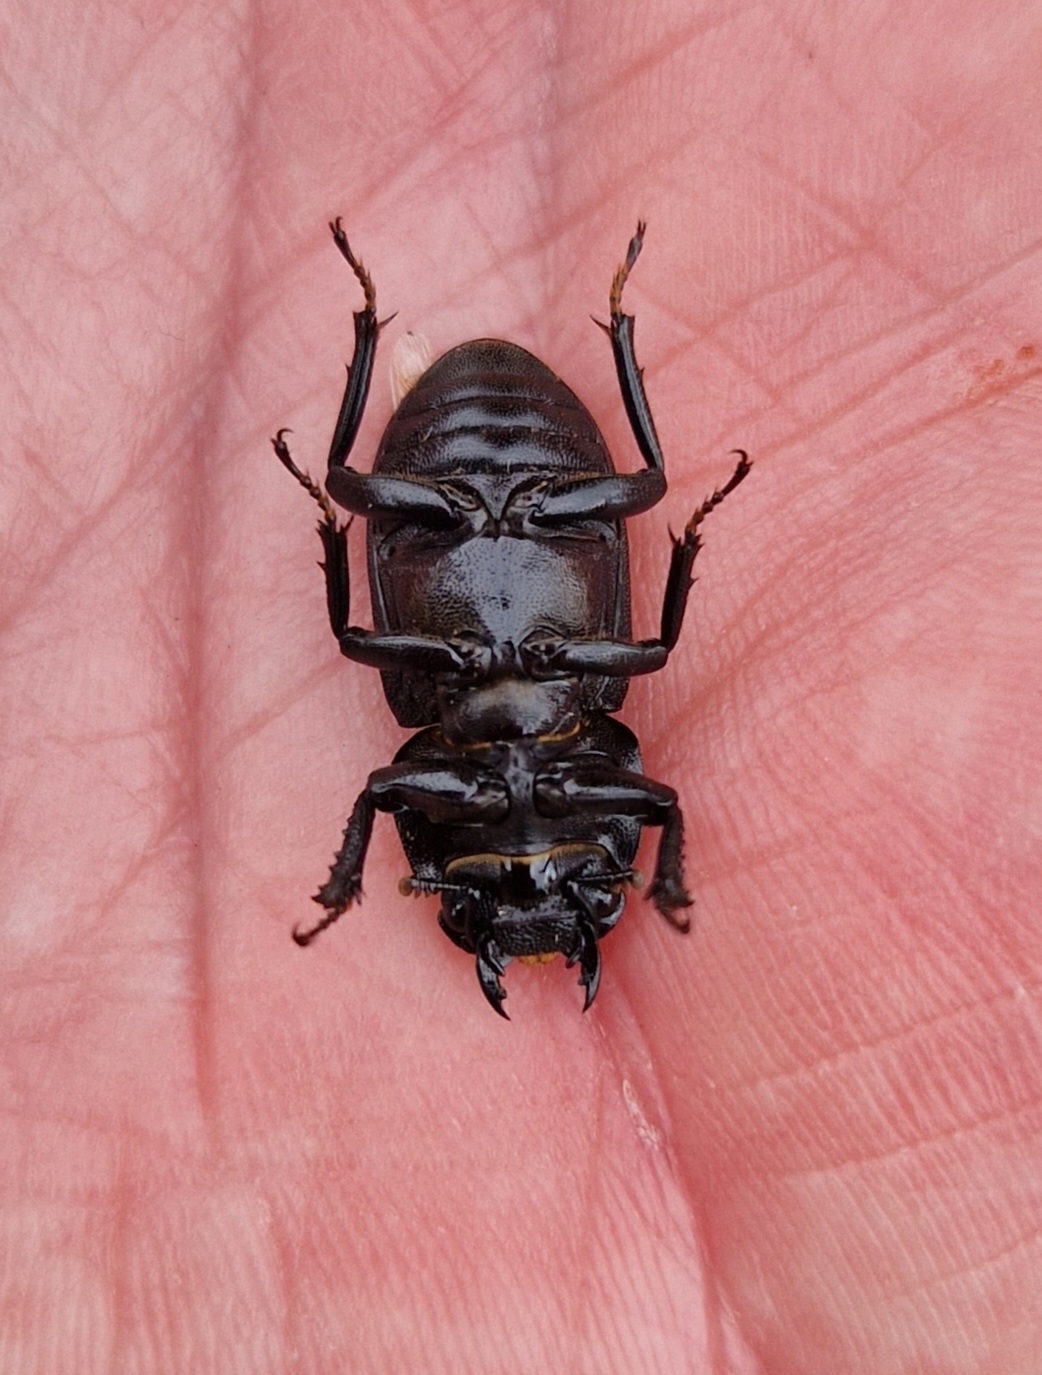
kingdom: Animalia
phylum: Arthropoda
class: Insecta
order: Coleoptera
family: Lucanidae
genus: Dorcus
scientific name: Dorcus parallelipipedus
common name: Bøghjort
